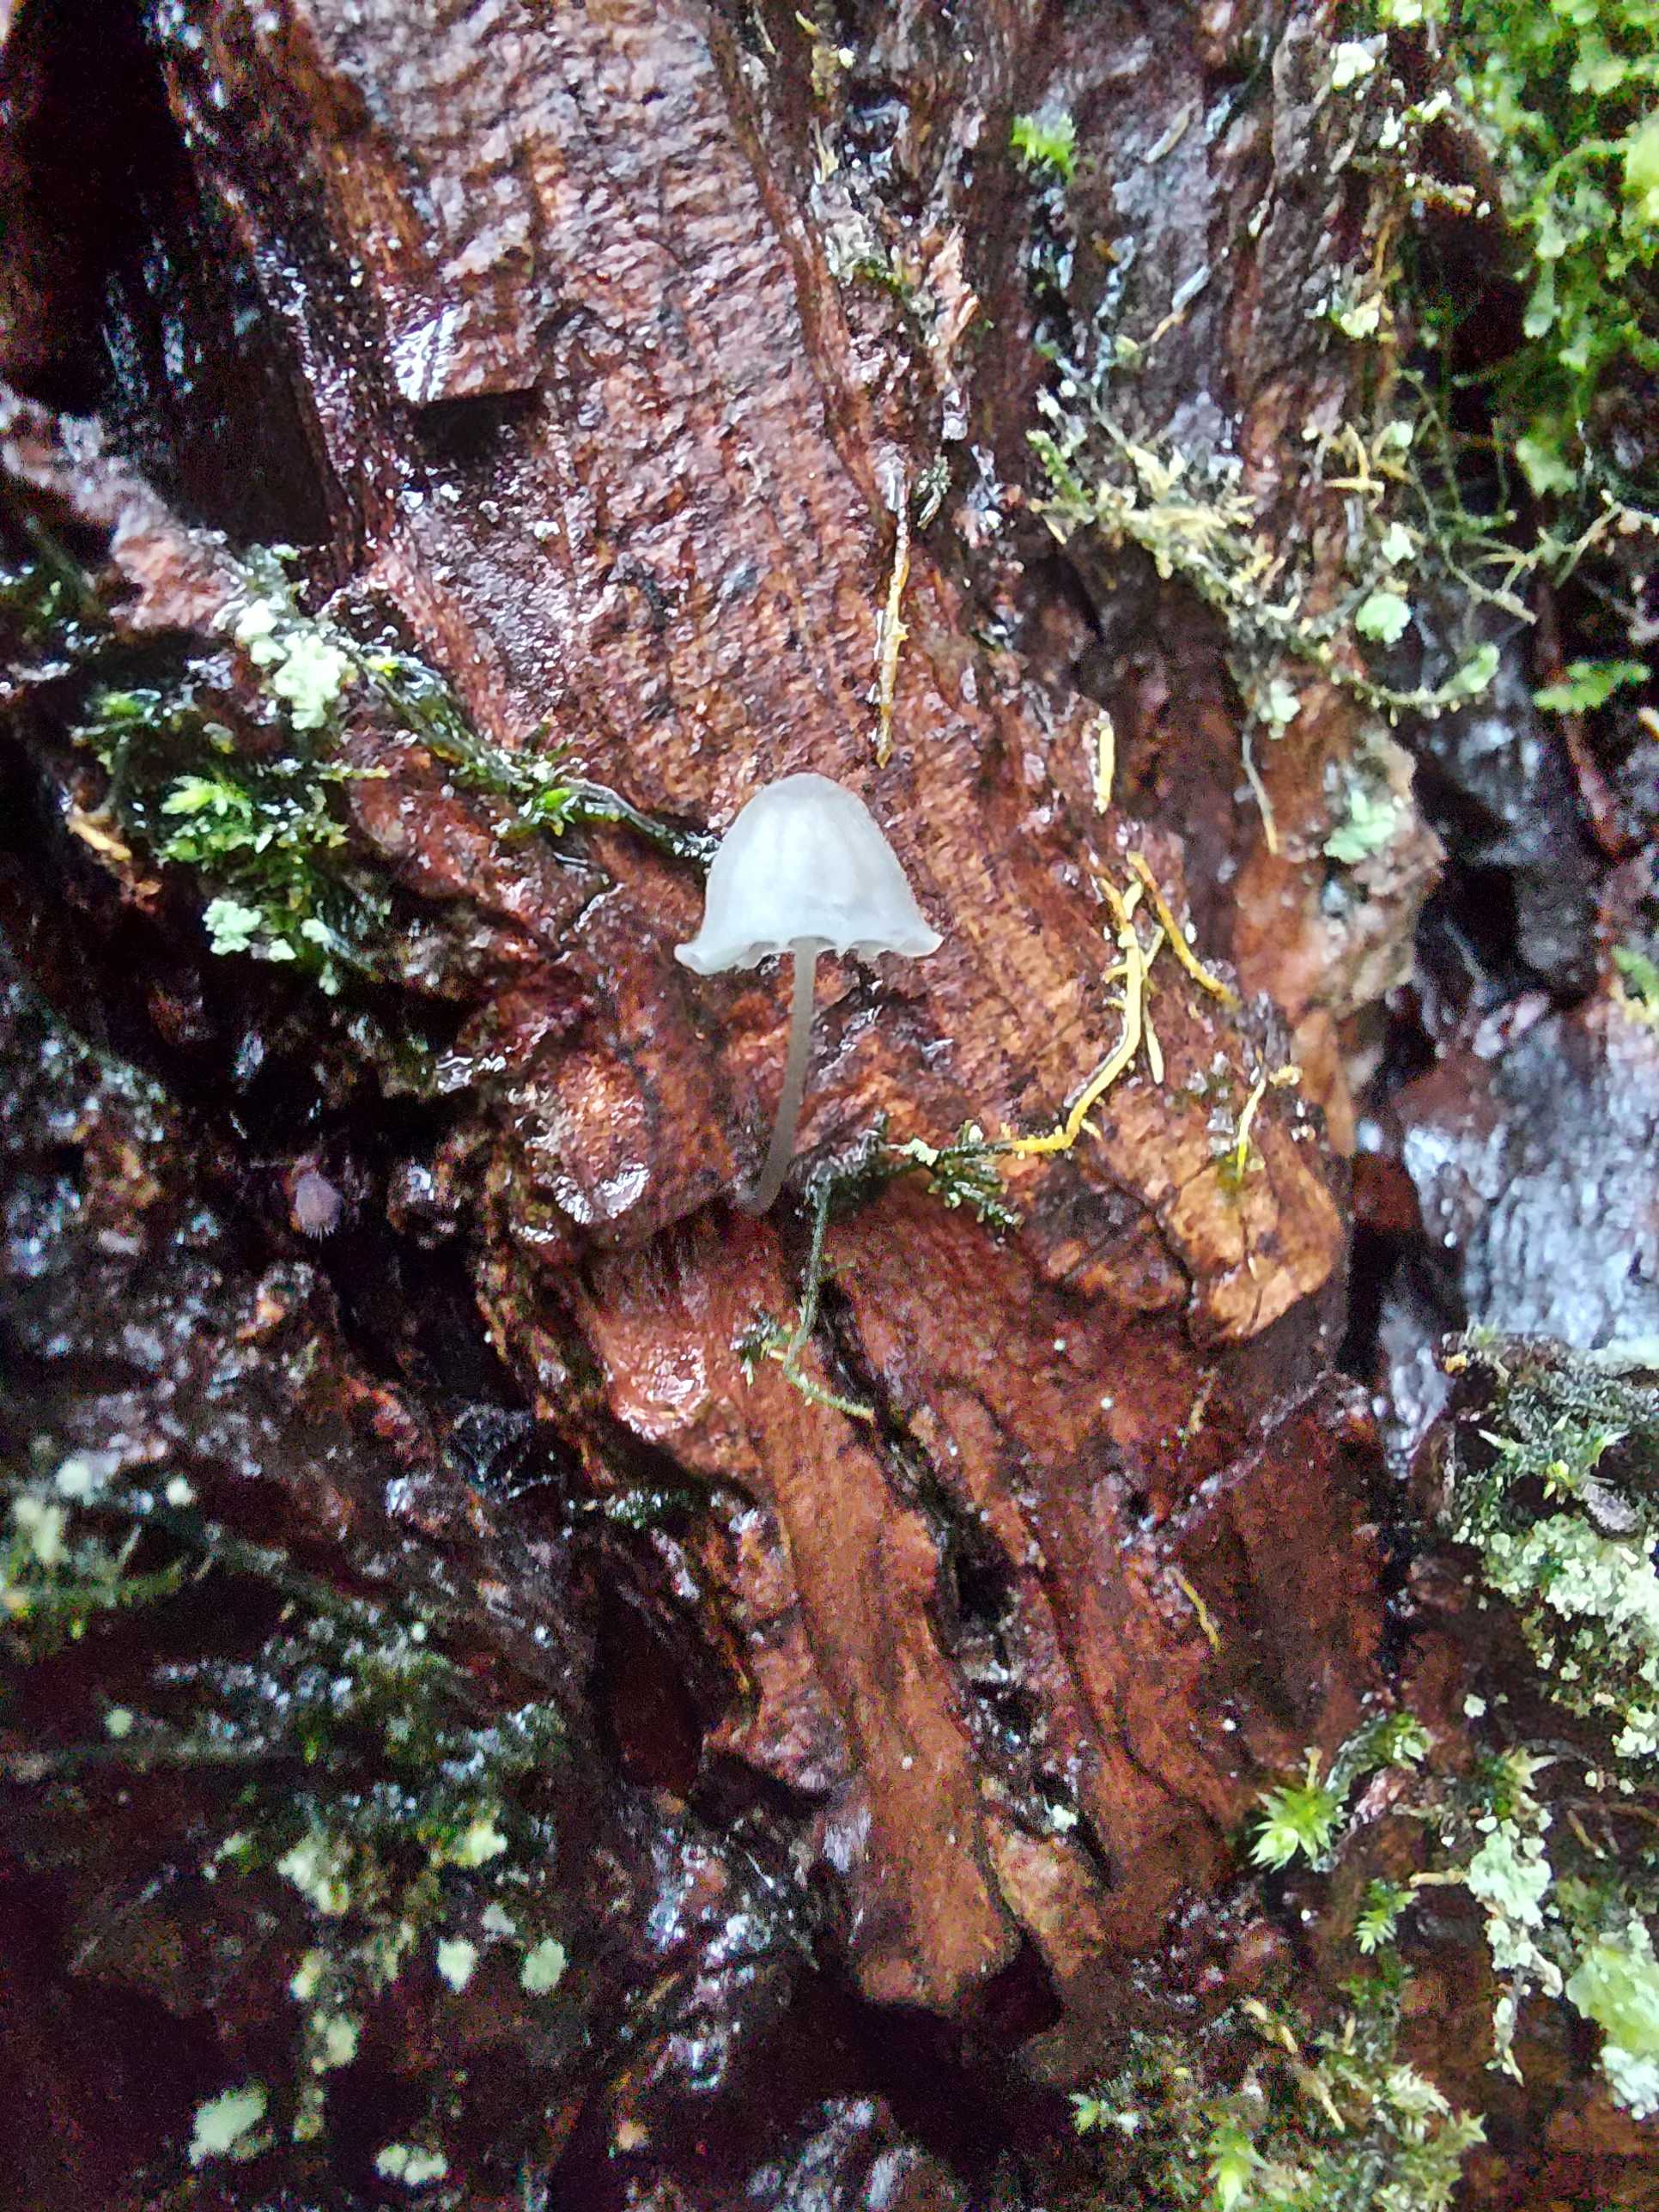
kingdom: Fungi
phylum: Basidiomycota
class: Agaricomycetes
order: Agaricales
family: Mycenaceae
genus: Mycena
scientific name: Mycena
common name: huesvamp
